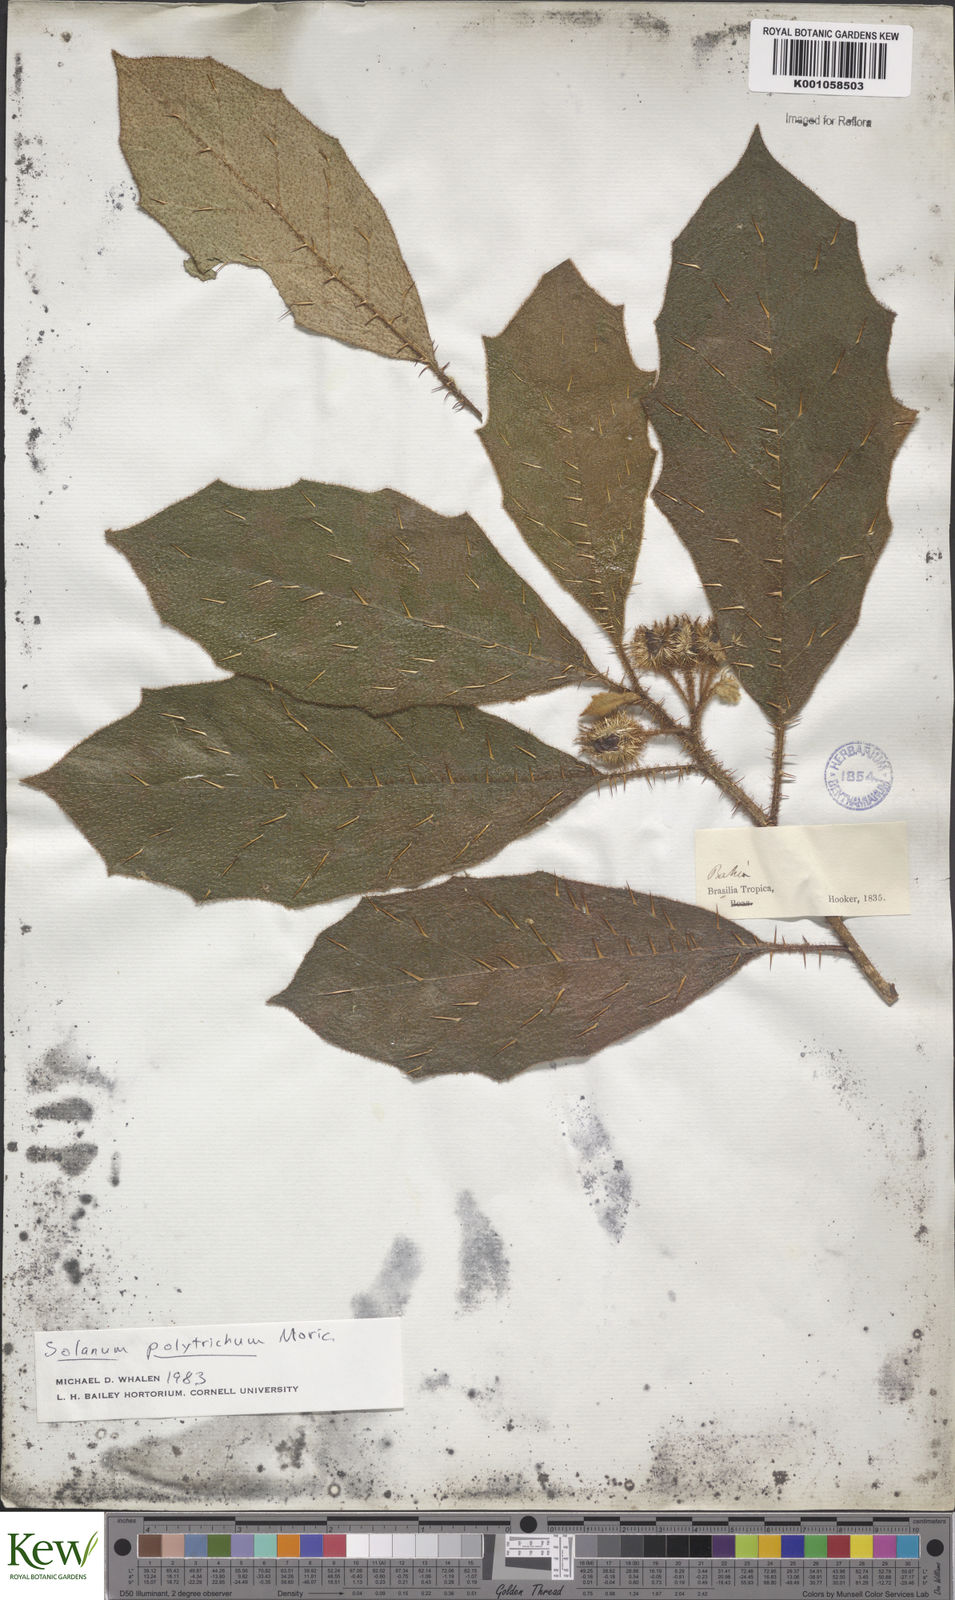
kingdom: Plantae
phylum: Tracheophyta
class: Magnoliopsida
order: Solanales
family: Solanaceae
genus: Solanum
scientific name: Solanum polytrichum
